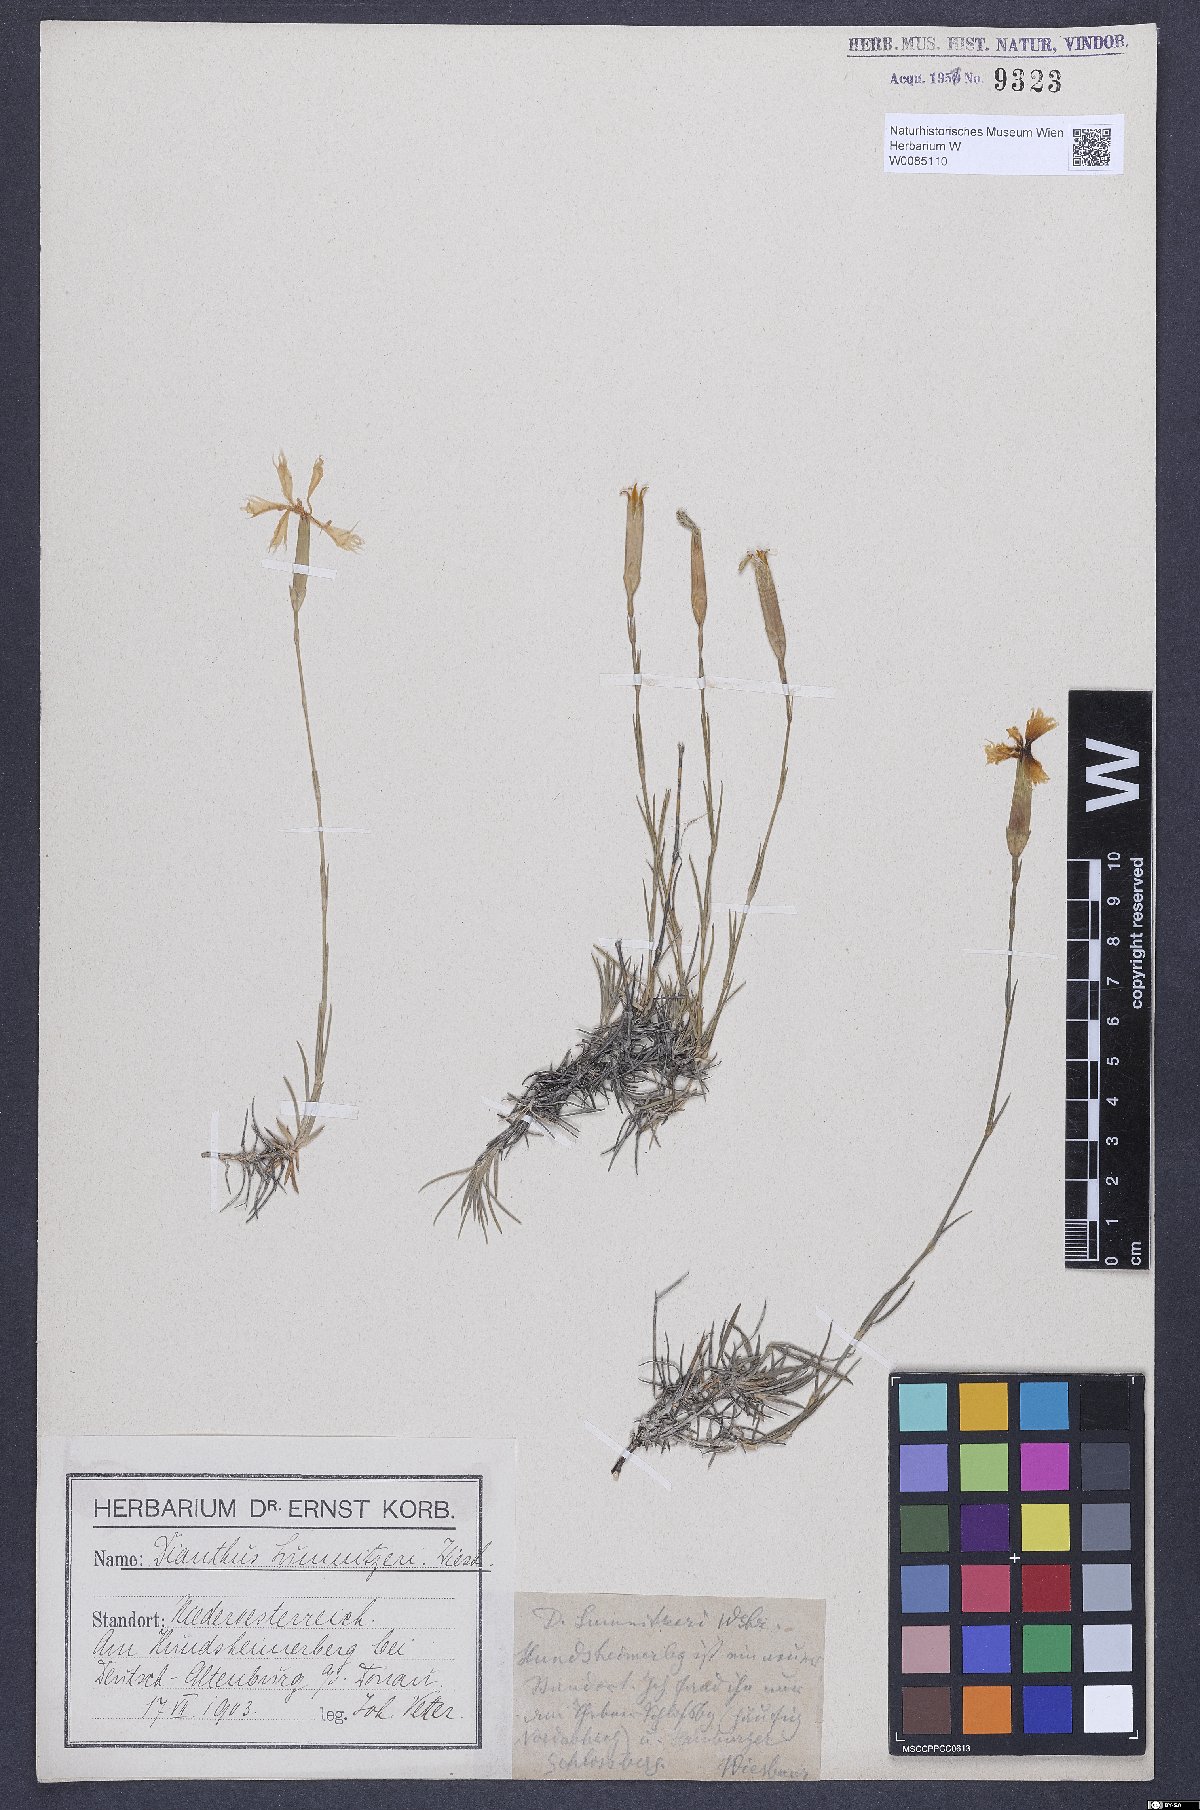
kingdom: Plantae
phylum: Tracheophyta
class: Magnoliopsida
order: Caryophyllales
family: Caryophyllaceae
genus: Dianthus
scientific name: Dianthus praecox
